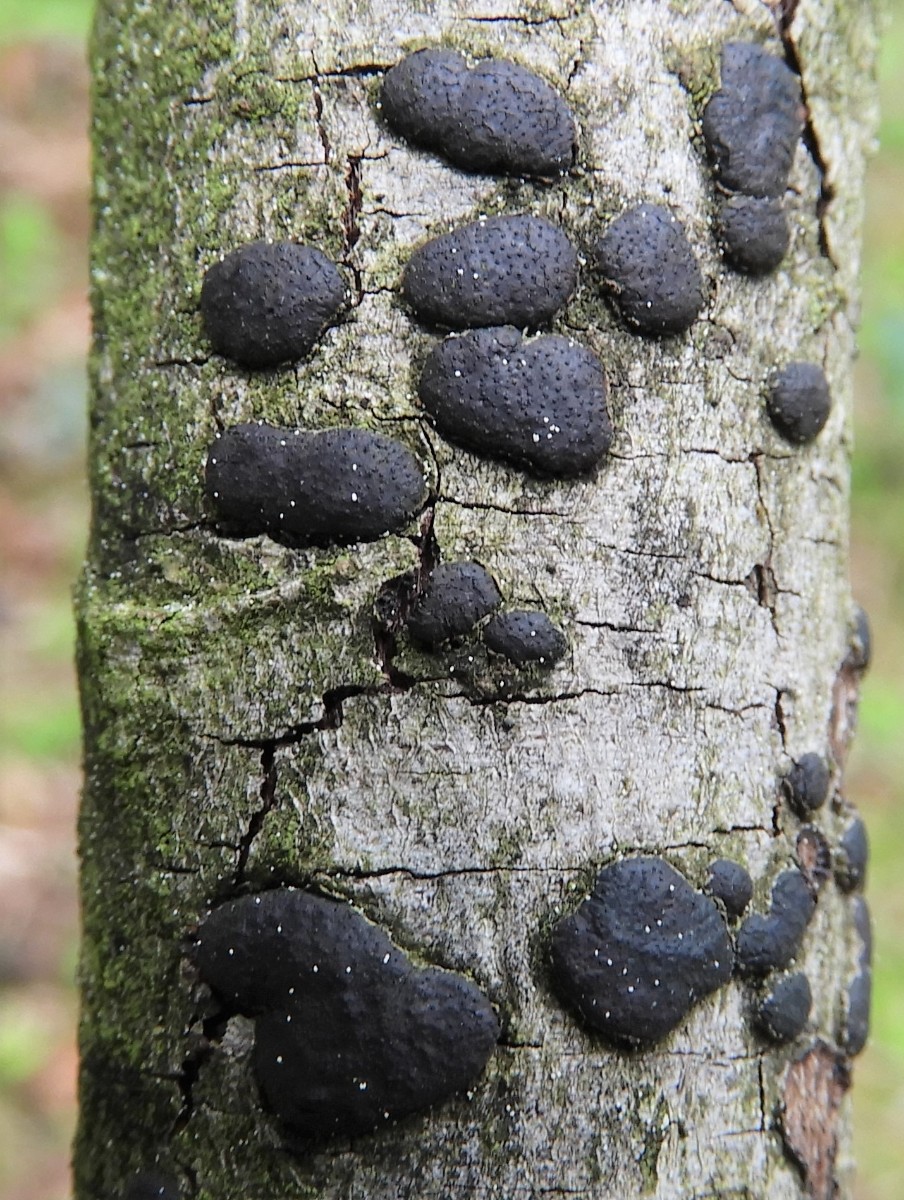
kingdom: Fungi
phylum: Ascomycota
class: Sordariomycetes
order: Xylariales
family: Diatrypaceae
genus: Diatrype
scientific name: Diatrype bullata
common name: pile-kulskorpe
